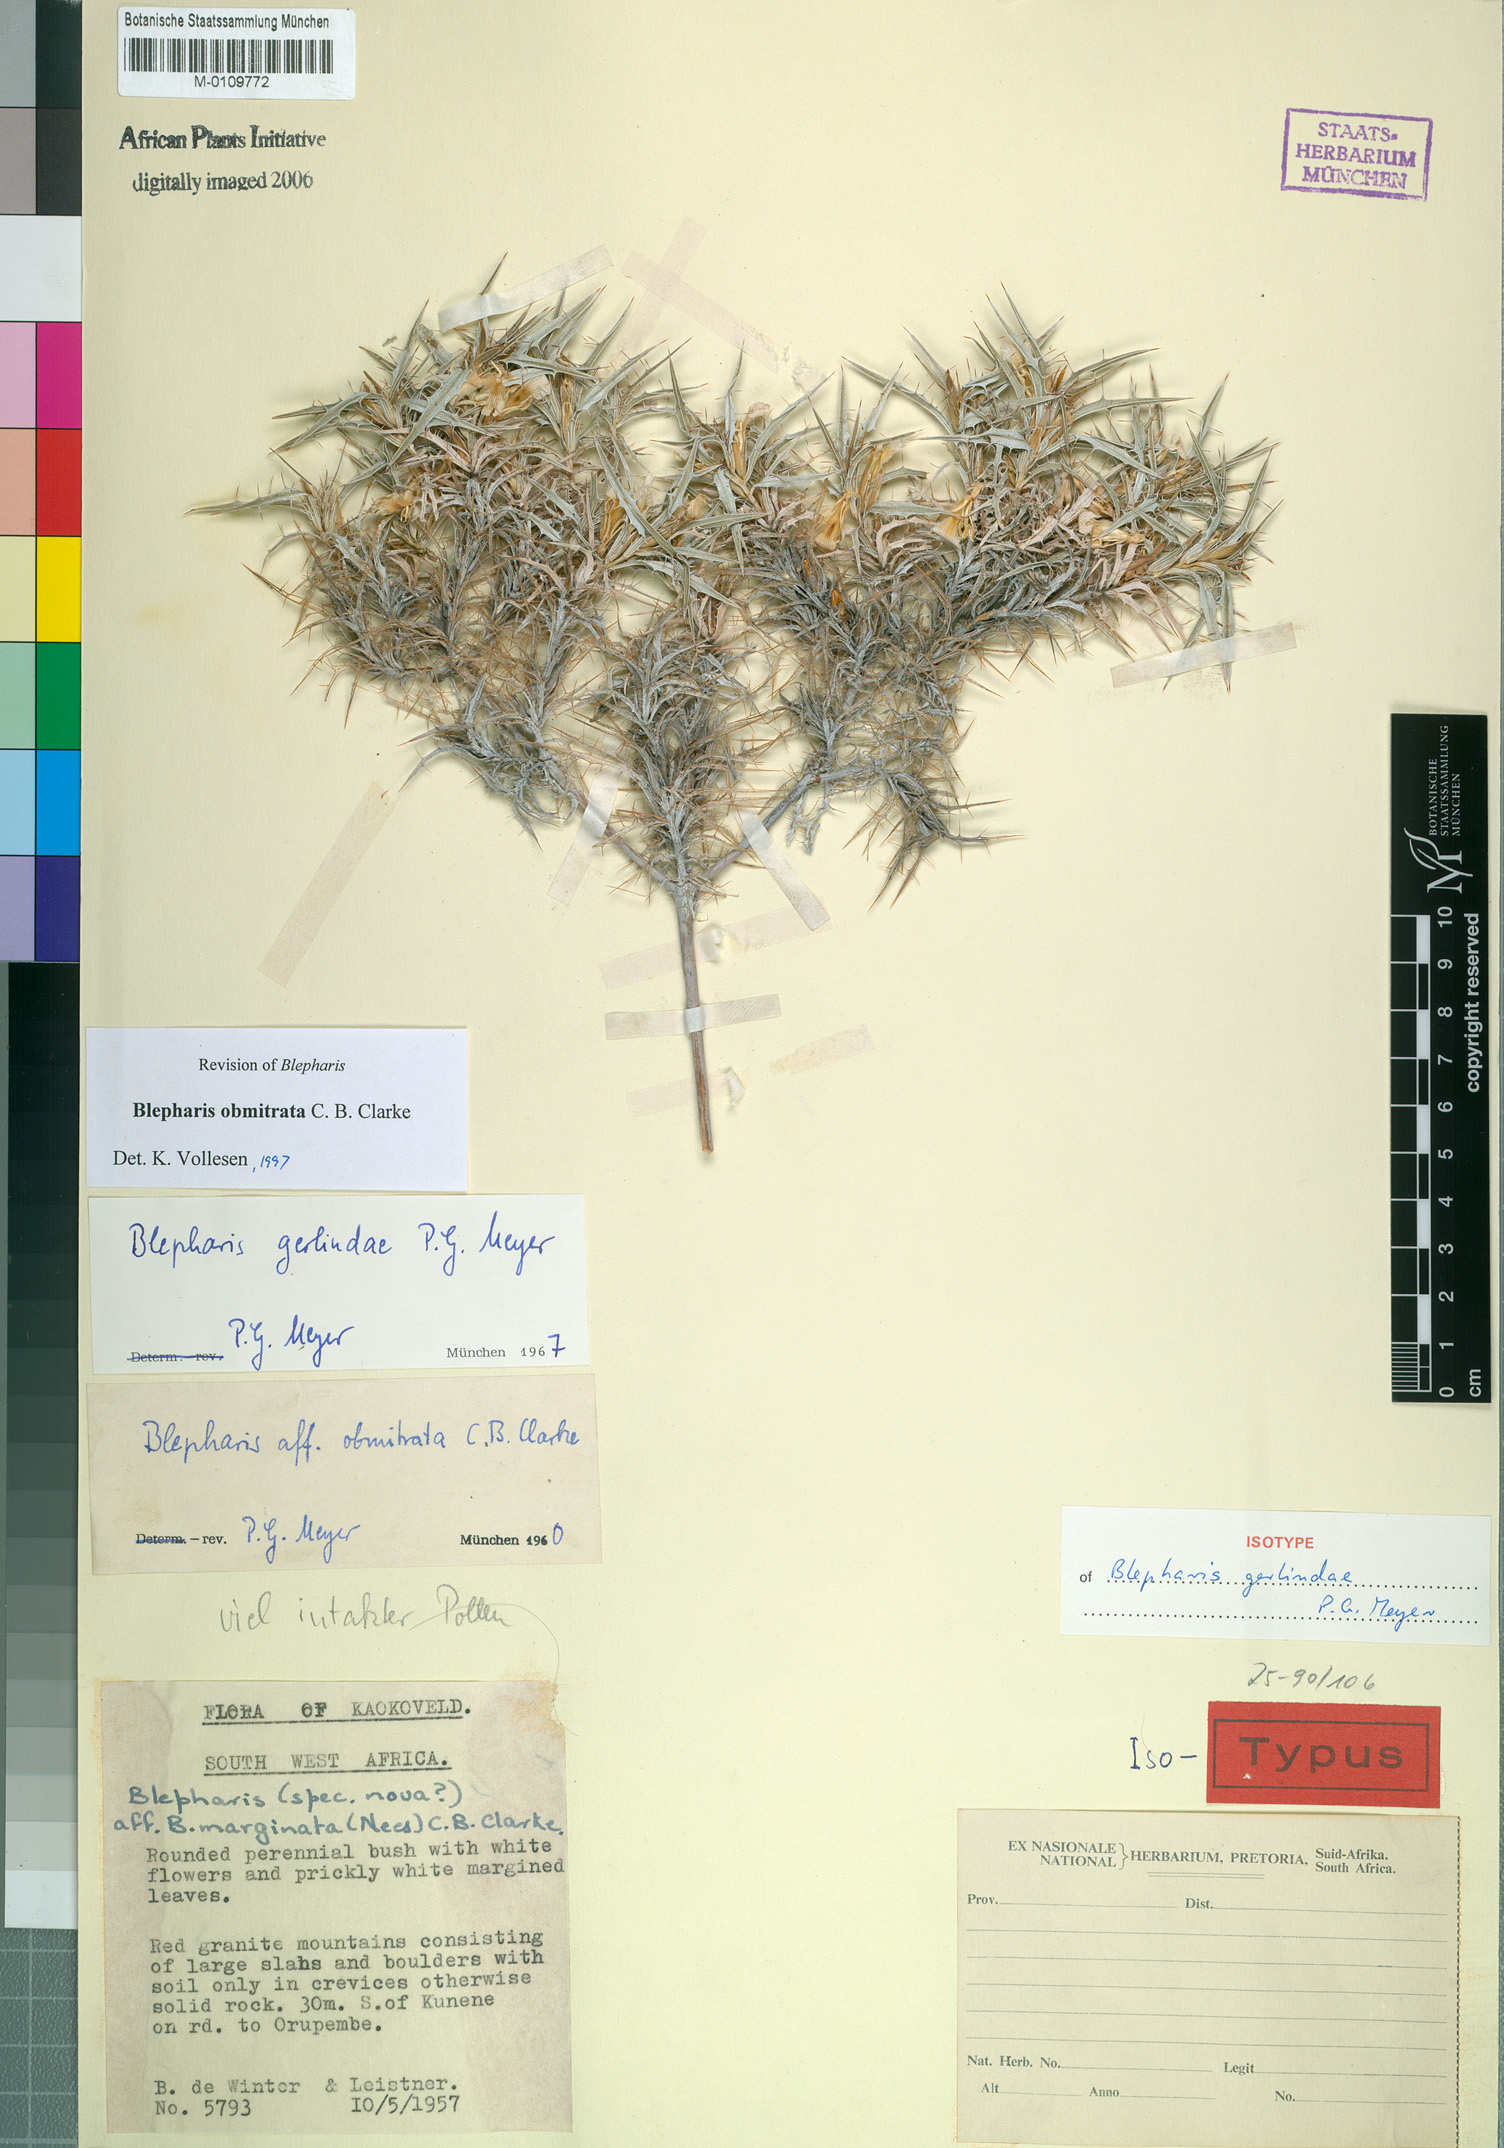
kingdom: Plantae
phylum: Tracheophyta
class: Magnoliopsida
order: Lamiales
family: Acanthaceae
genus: Blepharis
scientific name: Blepharis obmitrata
